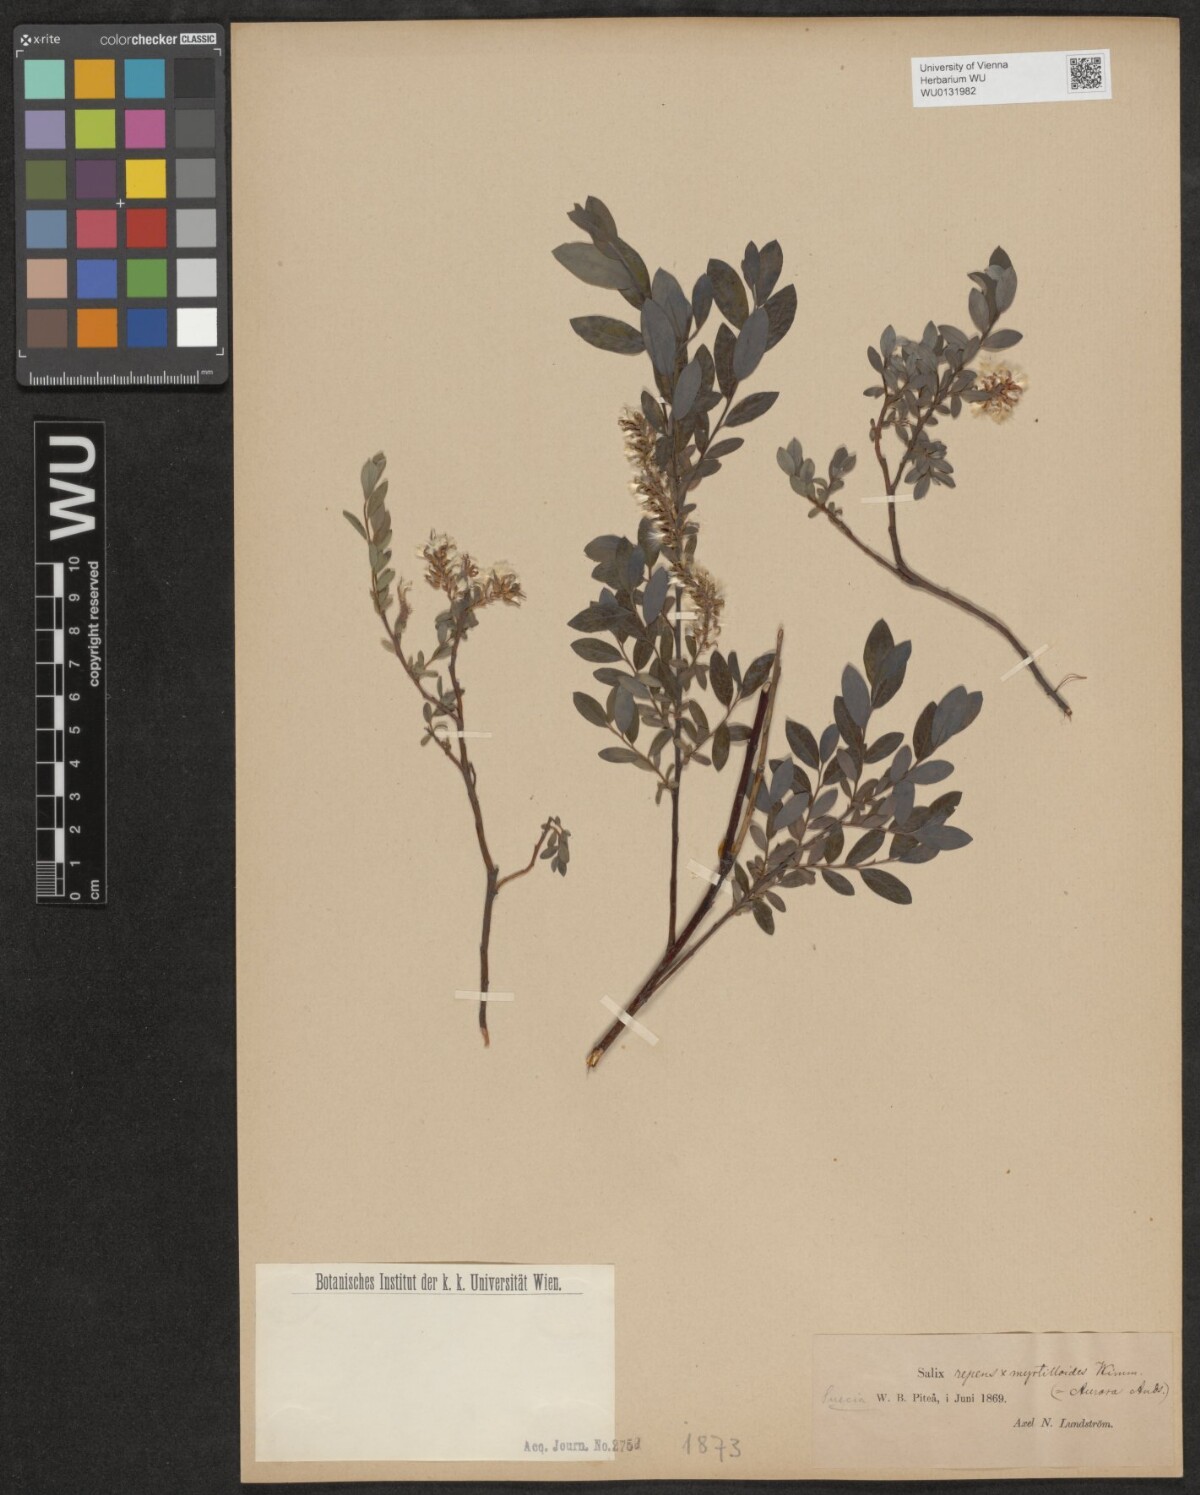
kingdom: Plantae
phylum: Tracheophyta
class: Magnoliopsida
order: Malpighiales
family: Salicaceae
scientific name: Salicaceae
